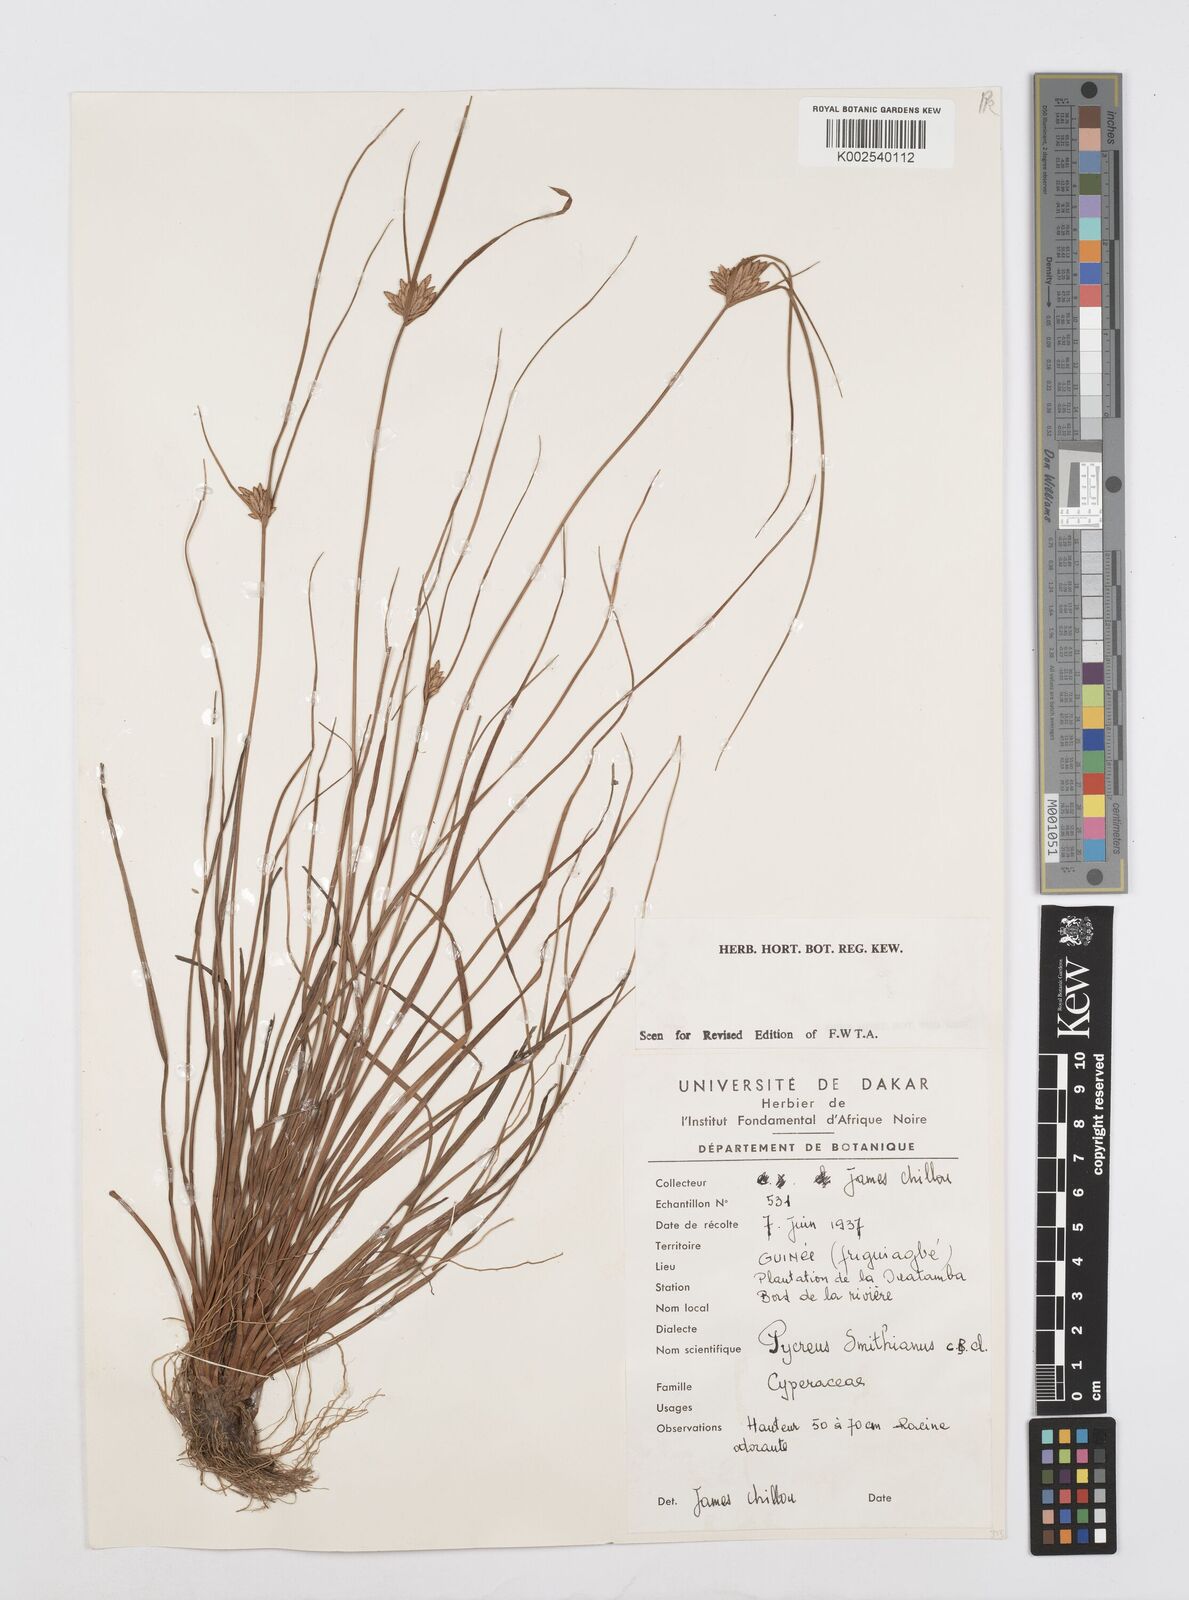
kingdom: Plantae
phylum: Tracheophyta
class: Liliopsida
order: Poales
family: Cyperaceae
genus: Cyperus
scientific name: Cyperus smithianus
